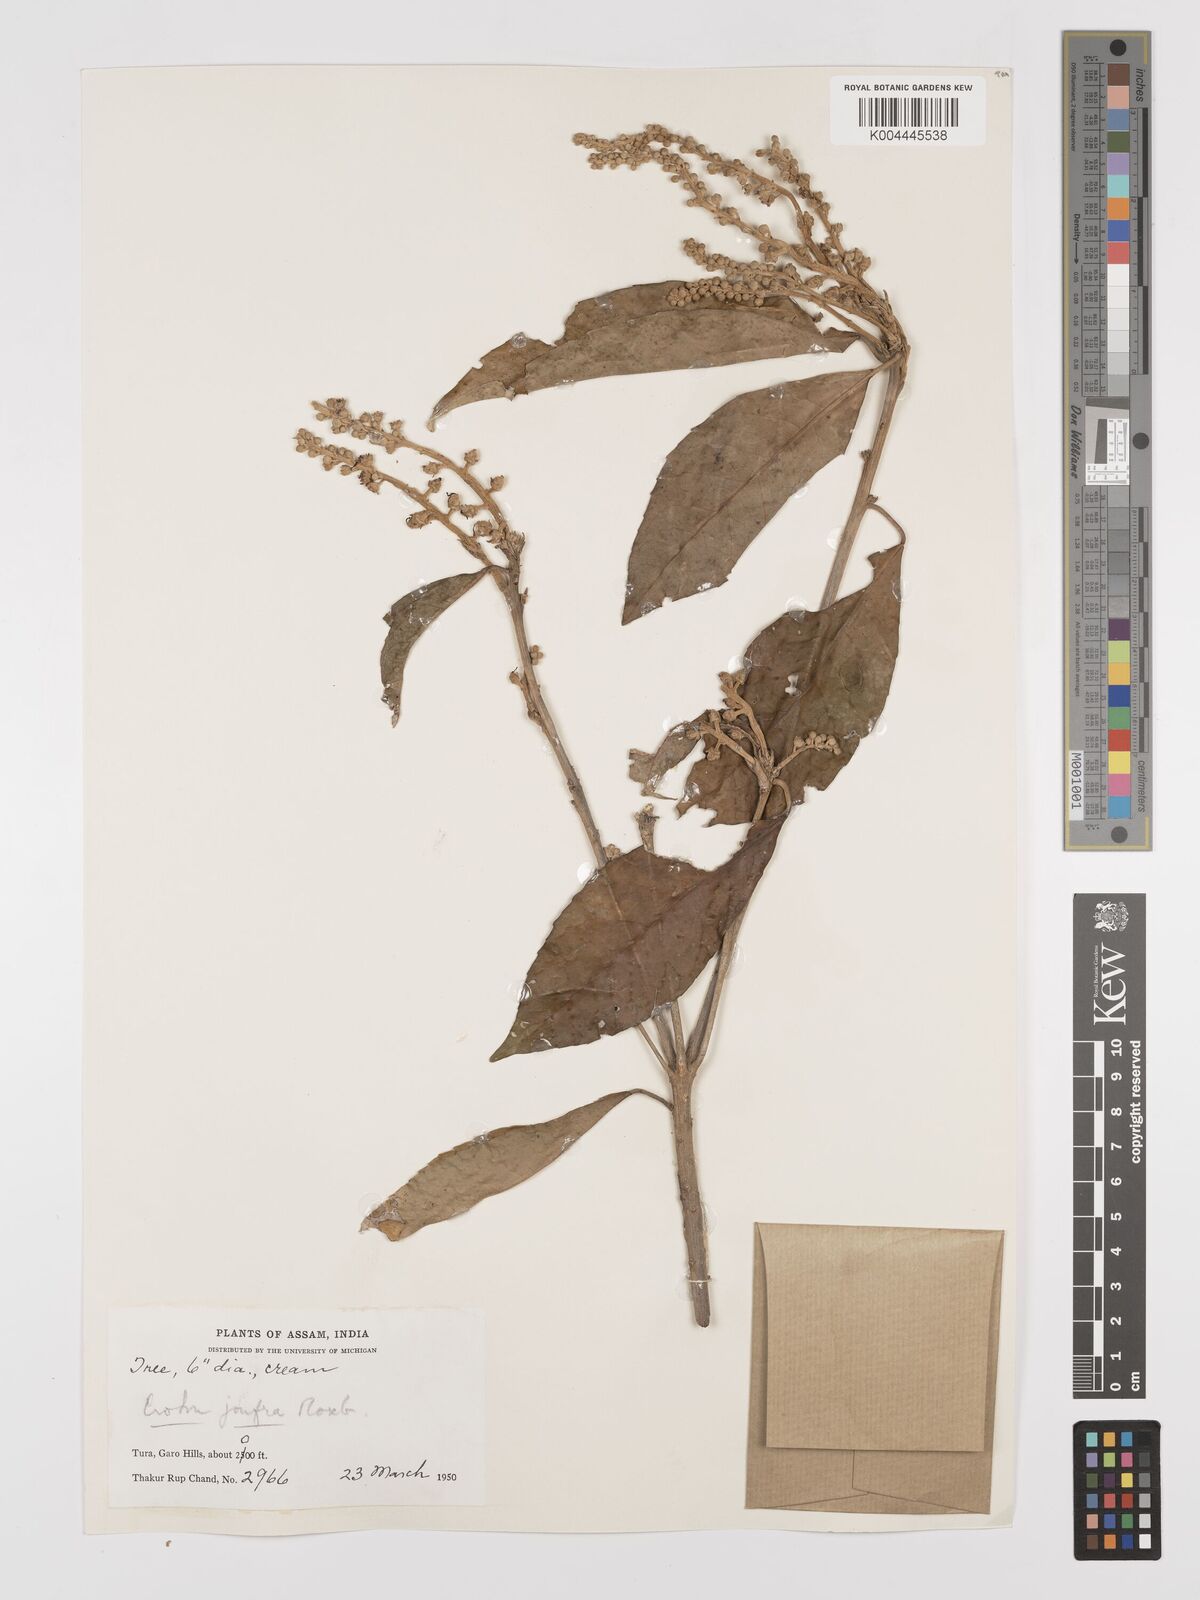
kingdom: Plantae
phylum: Tracheophyta
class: Magnoliopsida
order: Malpighiales
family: Euphorbiaceae
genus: Croton
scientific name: Croton joufra
